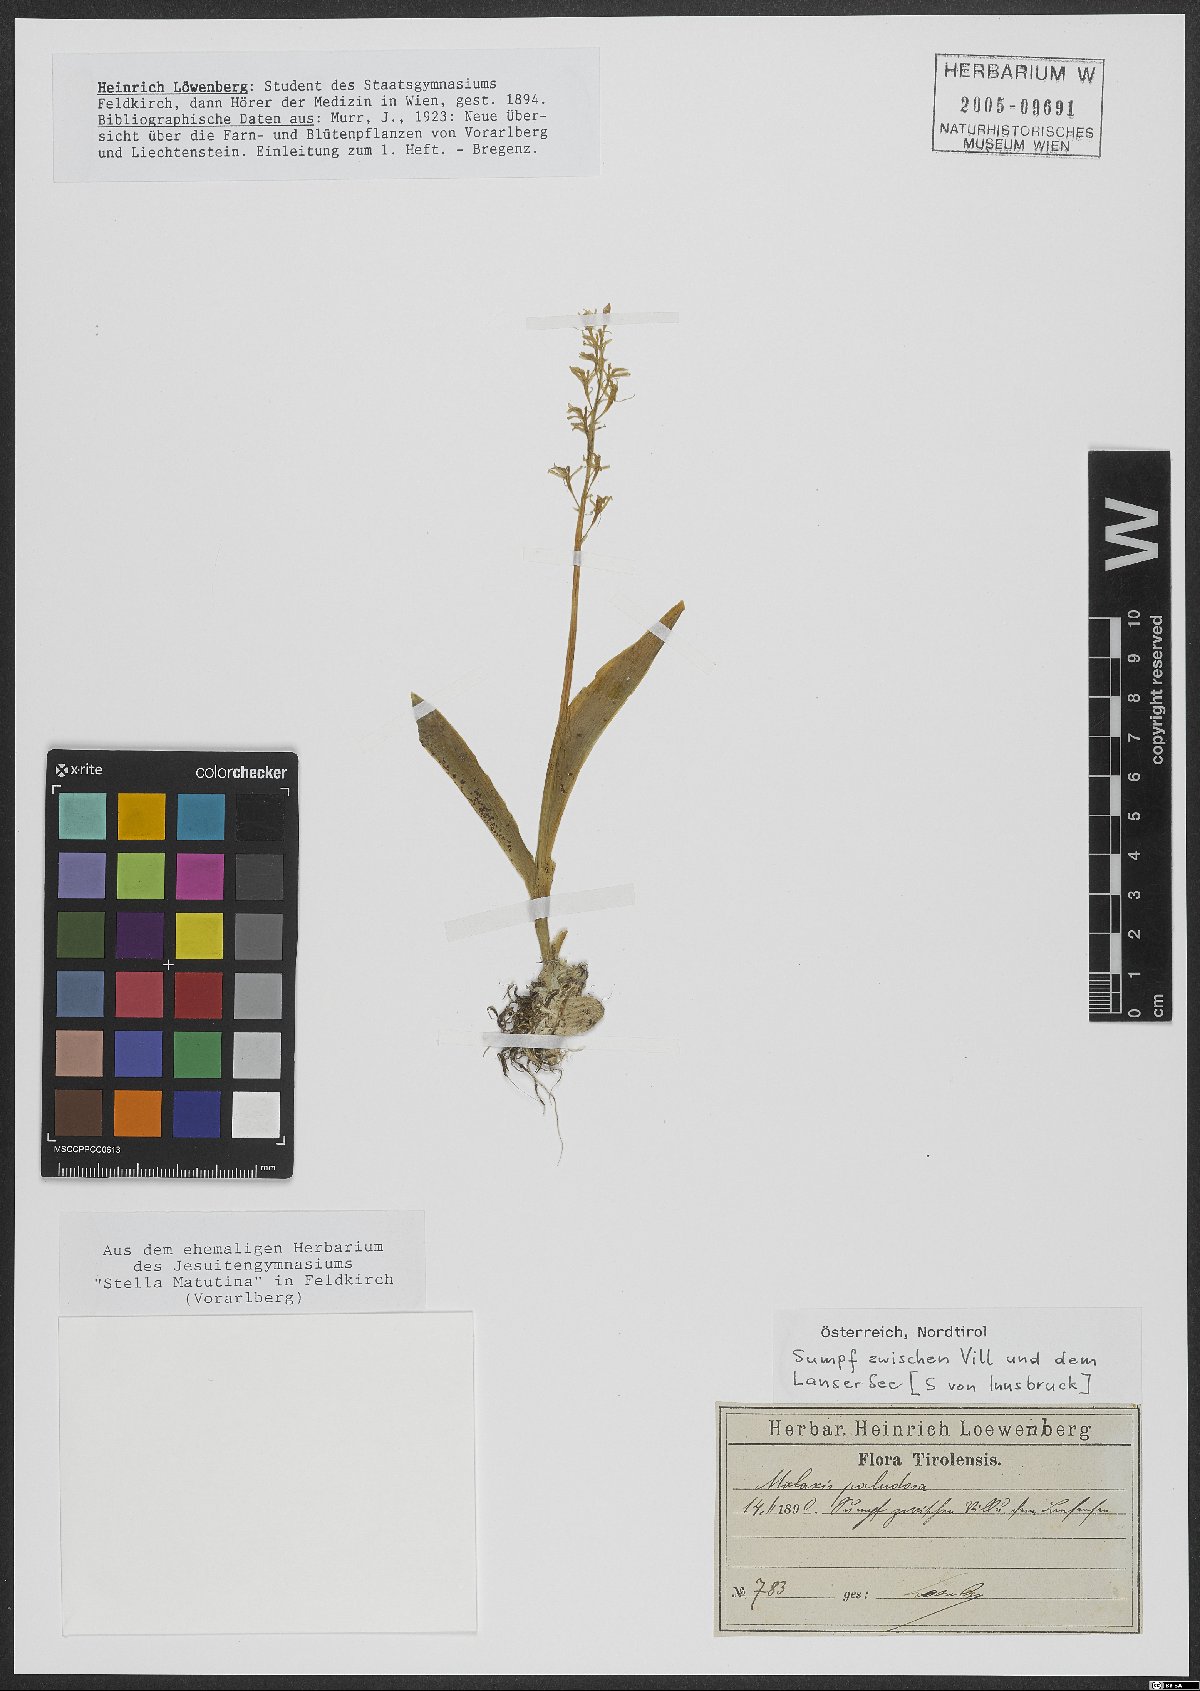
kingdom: Plantae
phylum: Tracheophyta
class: Liliopsida
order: Asparagales
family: Orchidaceae
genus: Hammarbya
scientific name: Hammarbya paludosa
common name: Bog orchid
